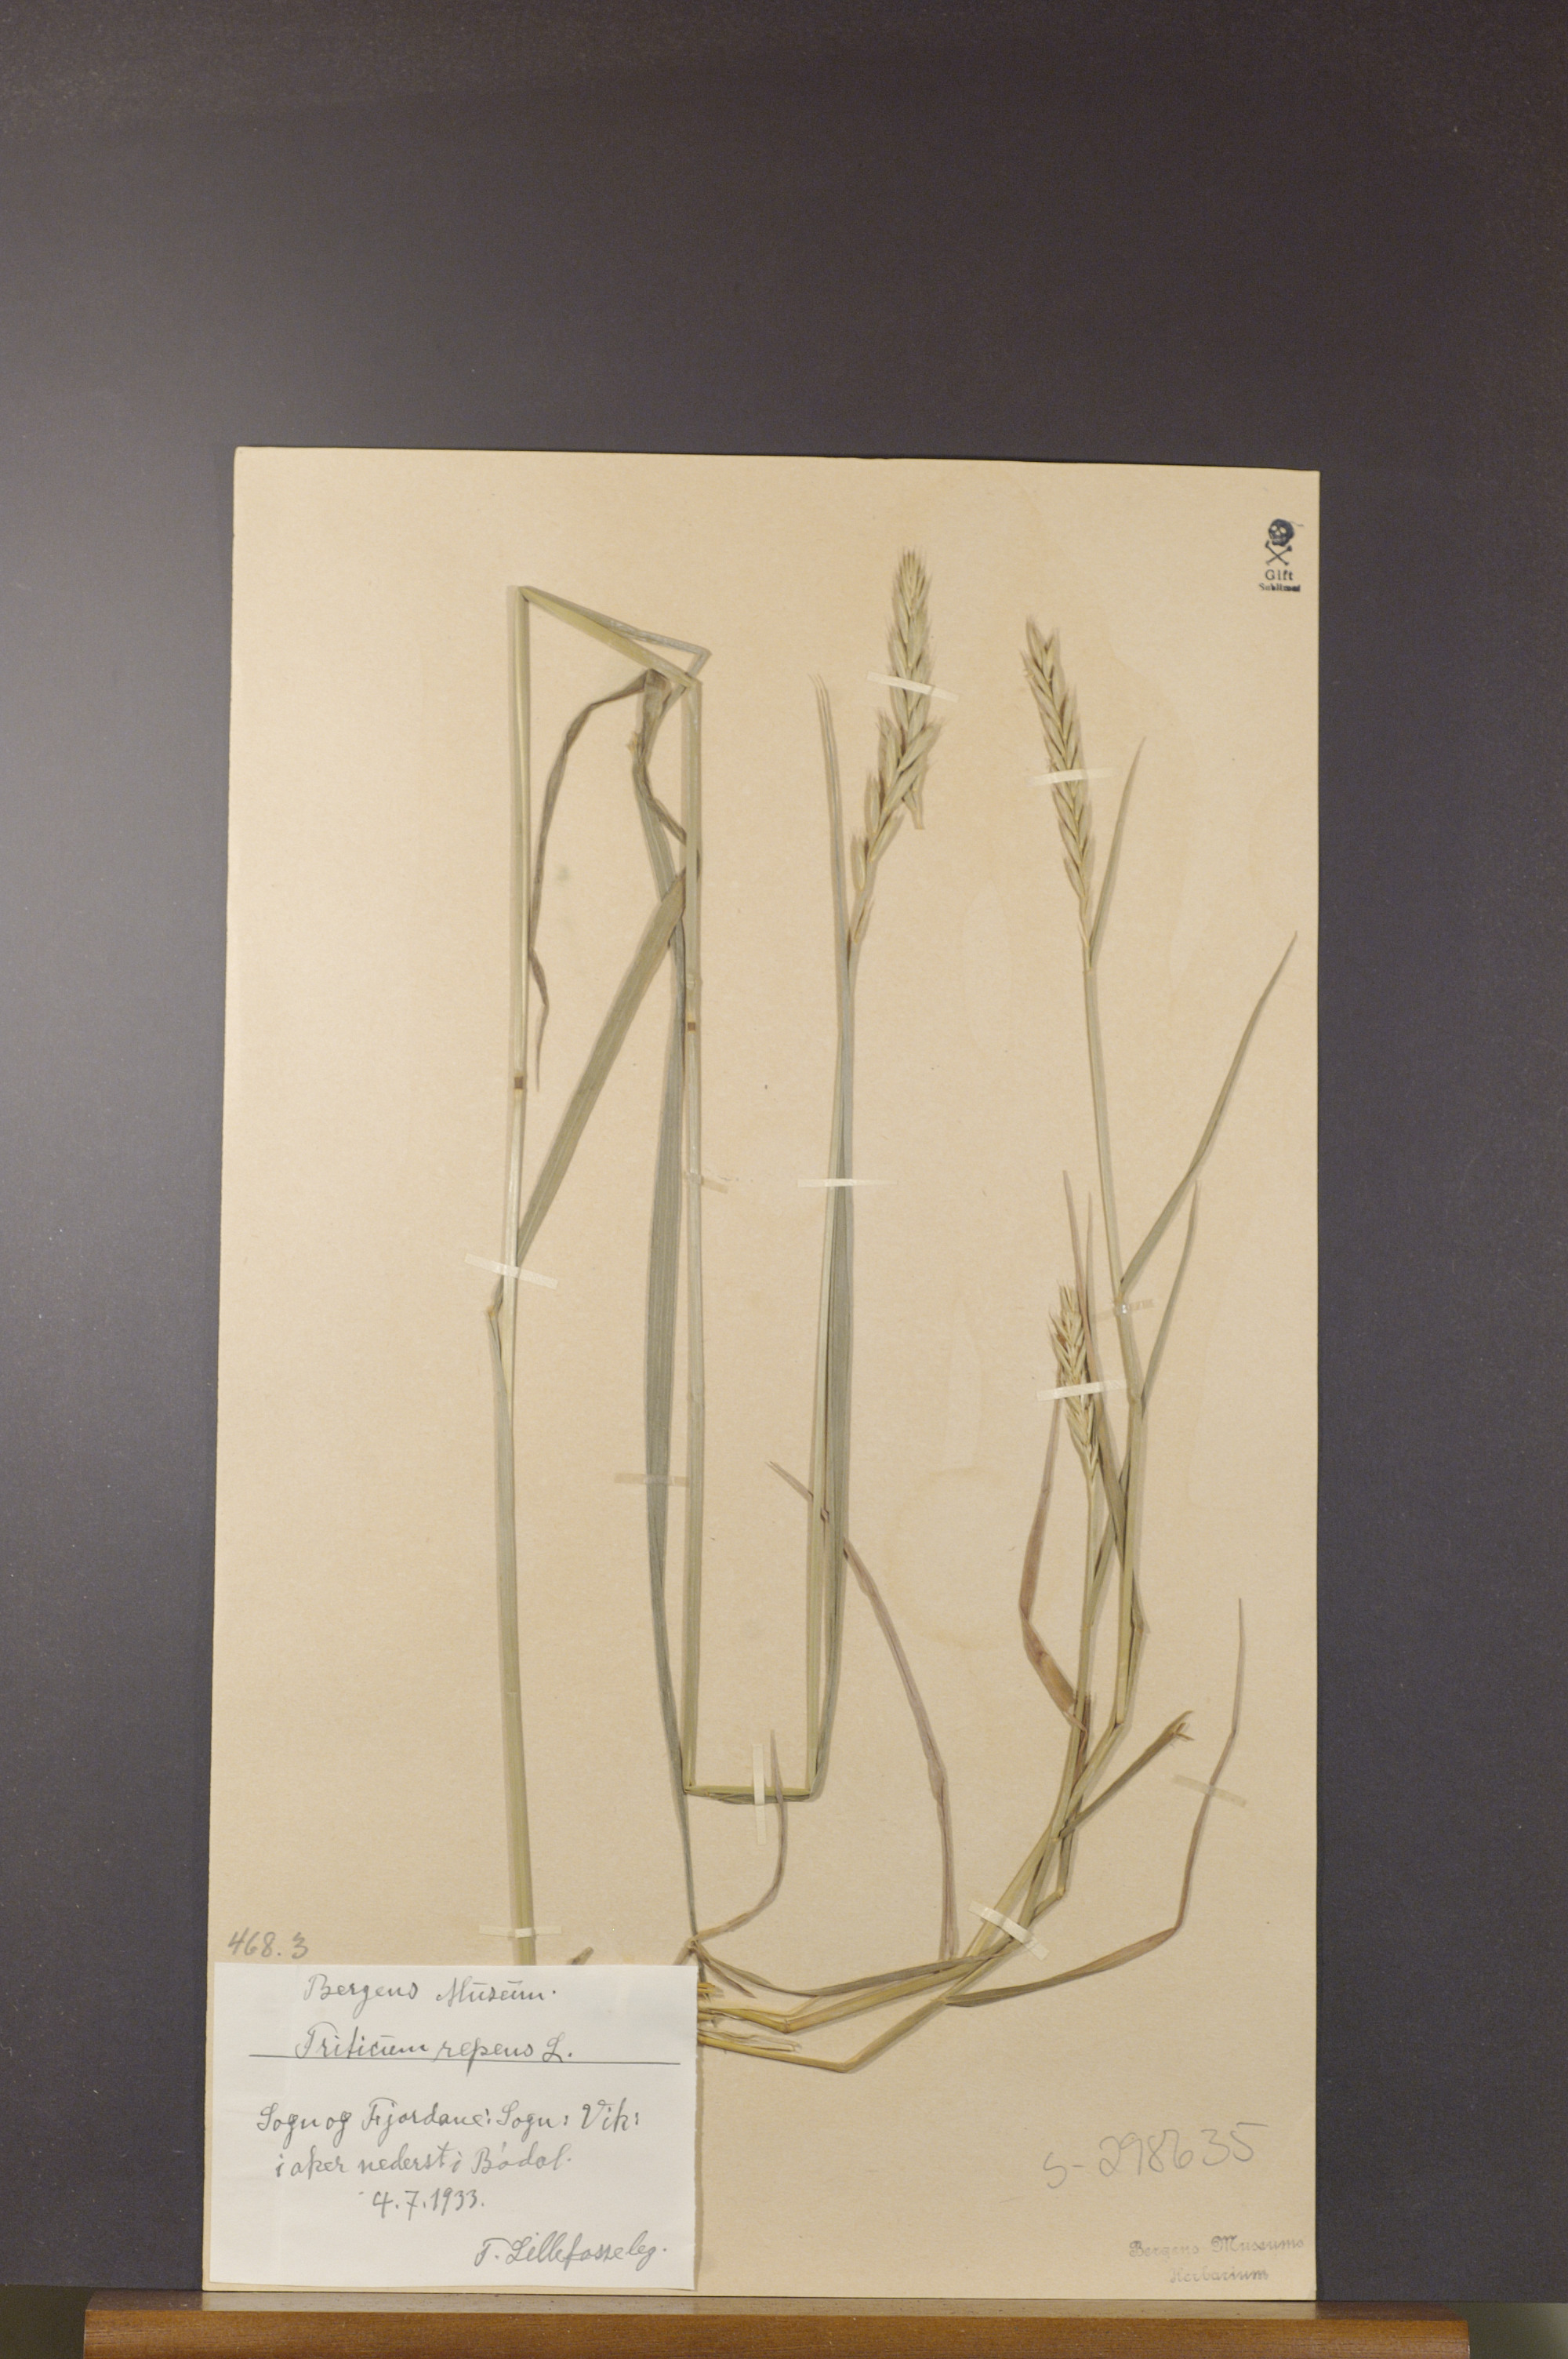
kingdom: Plantae
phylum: Tracheophyta
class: Liliopsida
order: Poales
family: Poaceae
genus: Elymus
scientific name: Elymus repens
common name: Quackgrass
